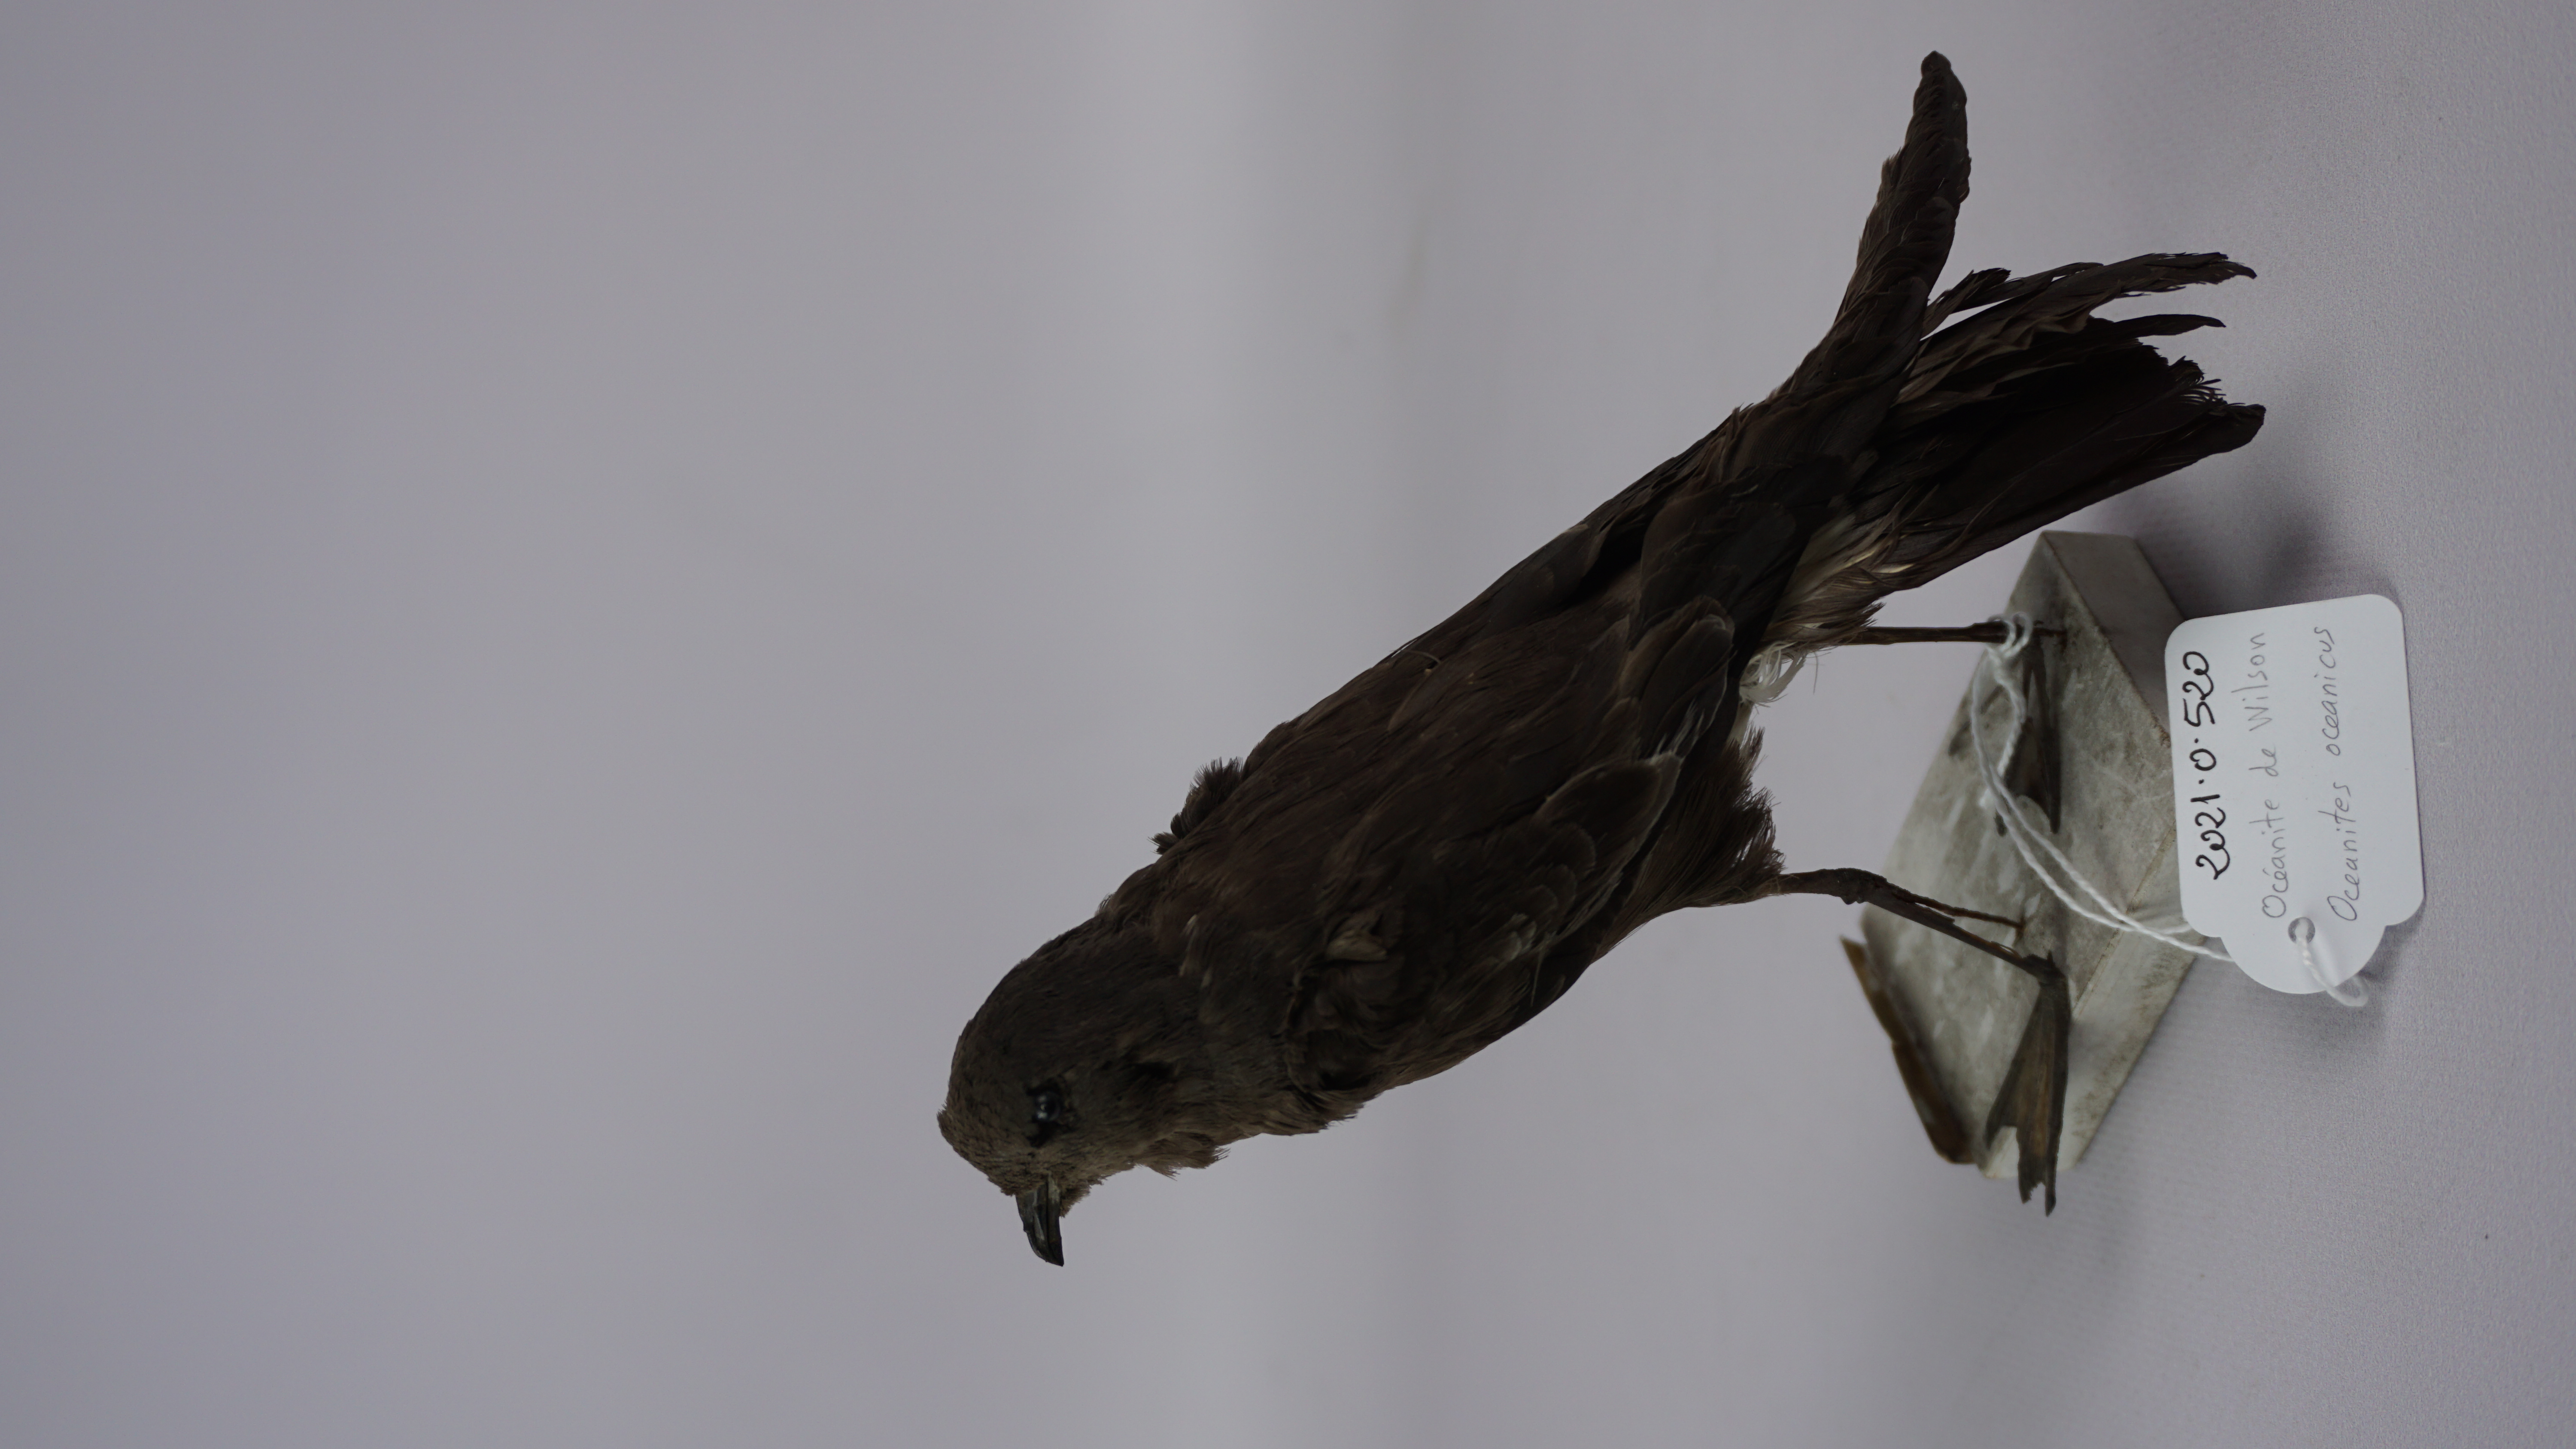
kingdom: Animalia
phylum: Chordata
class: Aves
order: Procellariiformes
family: Hydrobatidae
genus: Oceanites
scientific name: Oceanites oceanicus
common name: Wilson's storm petrel
